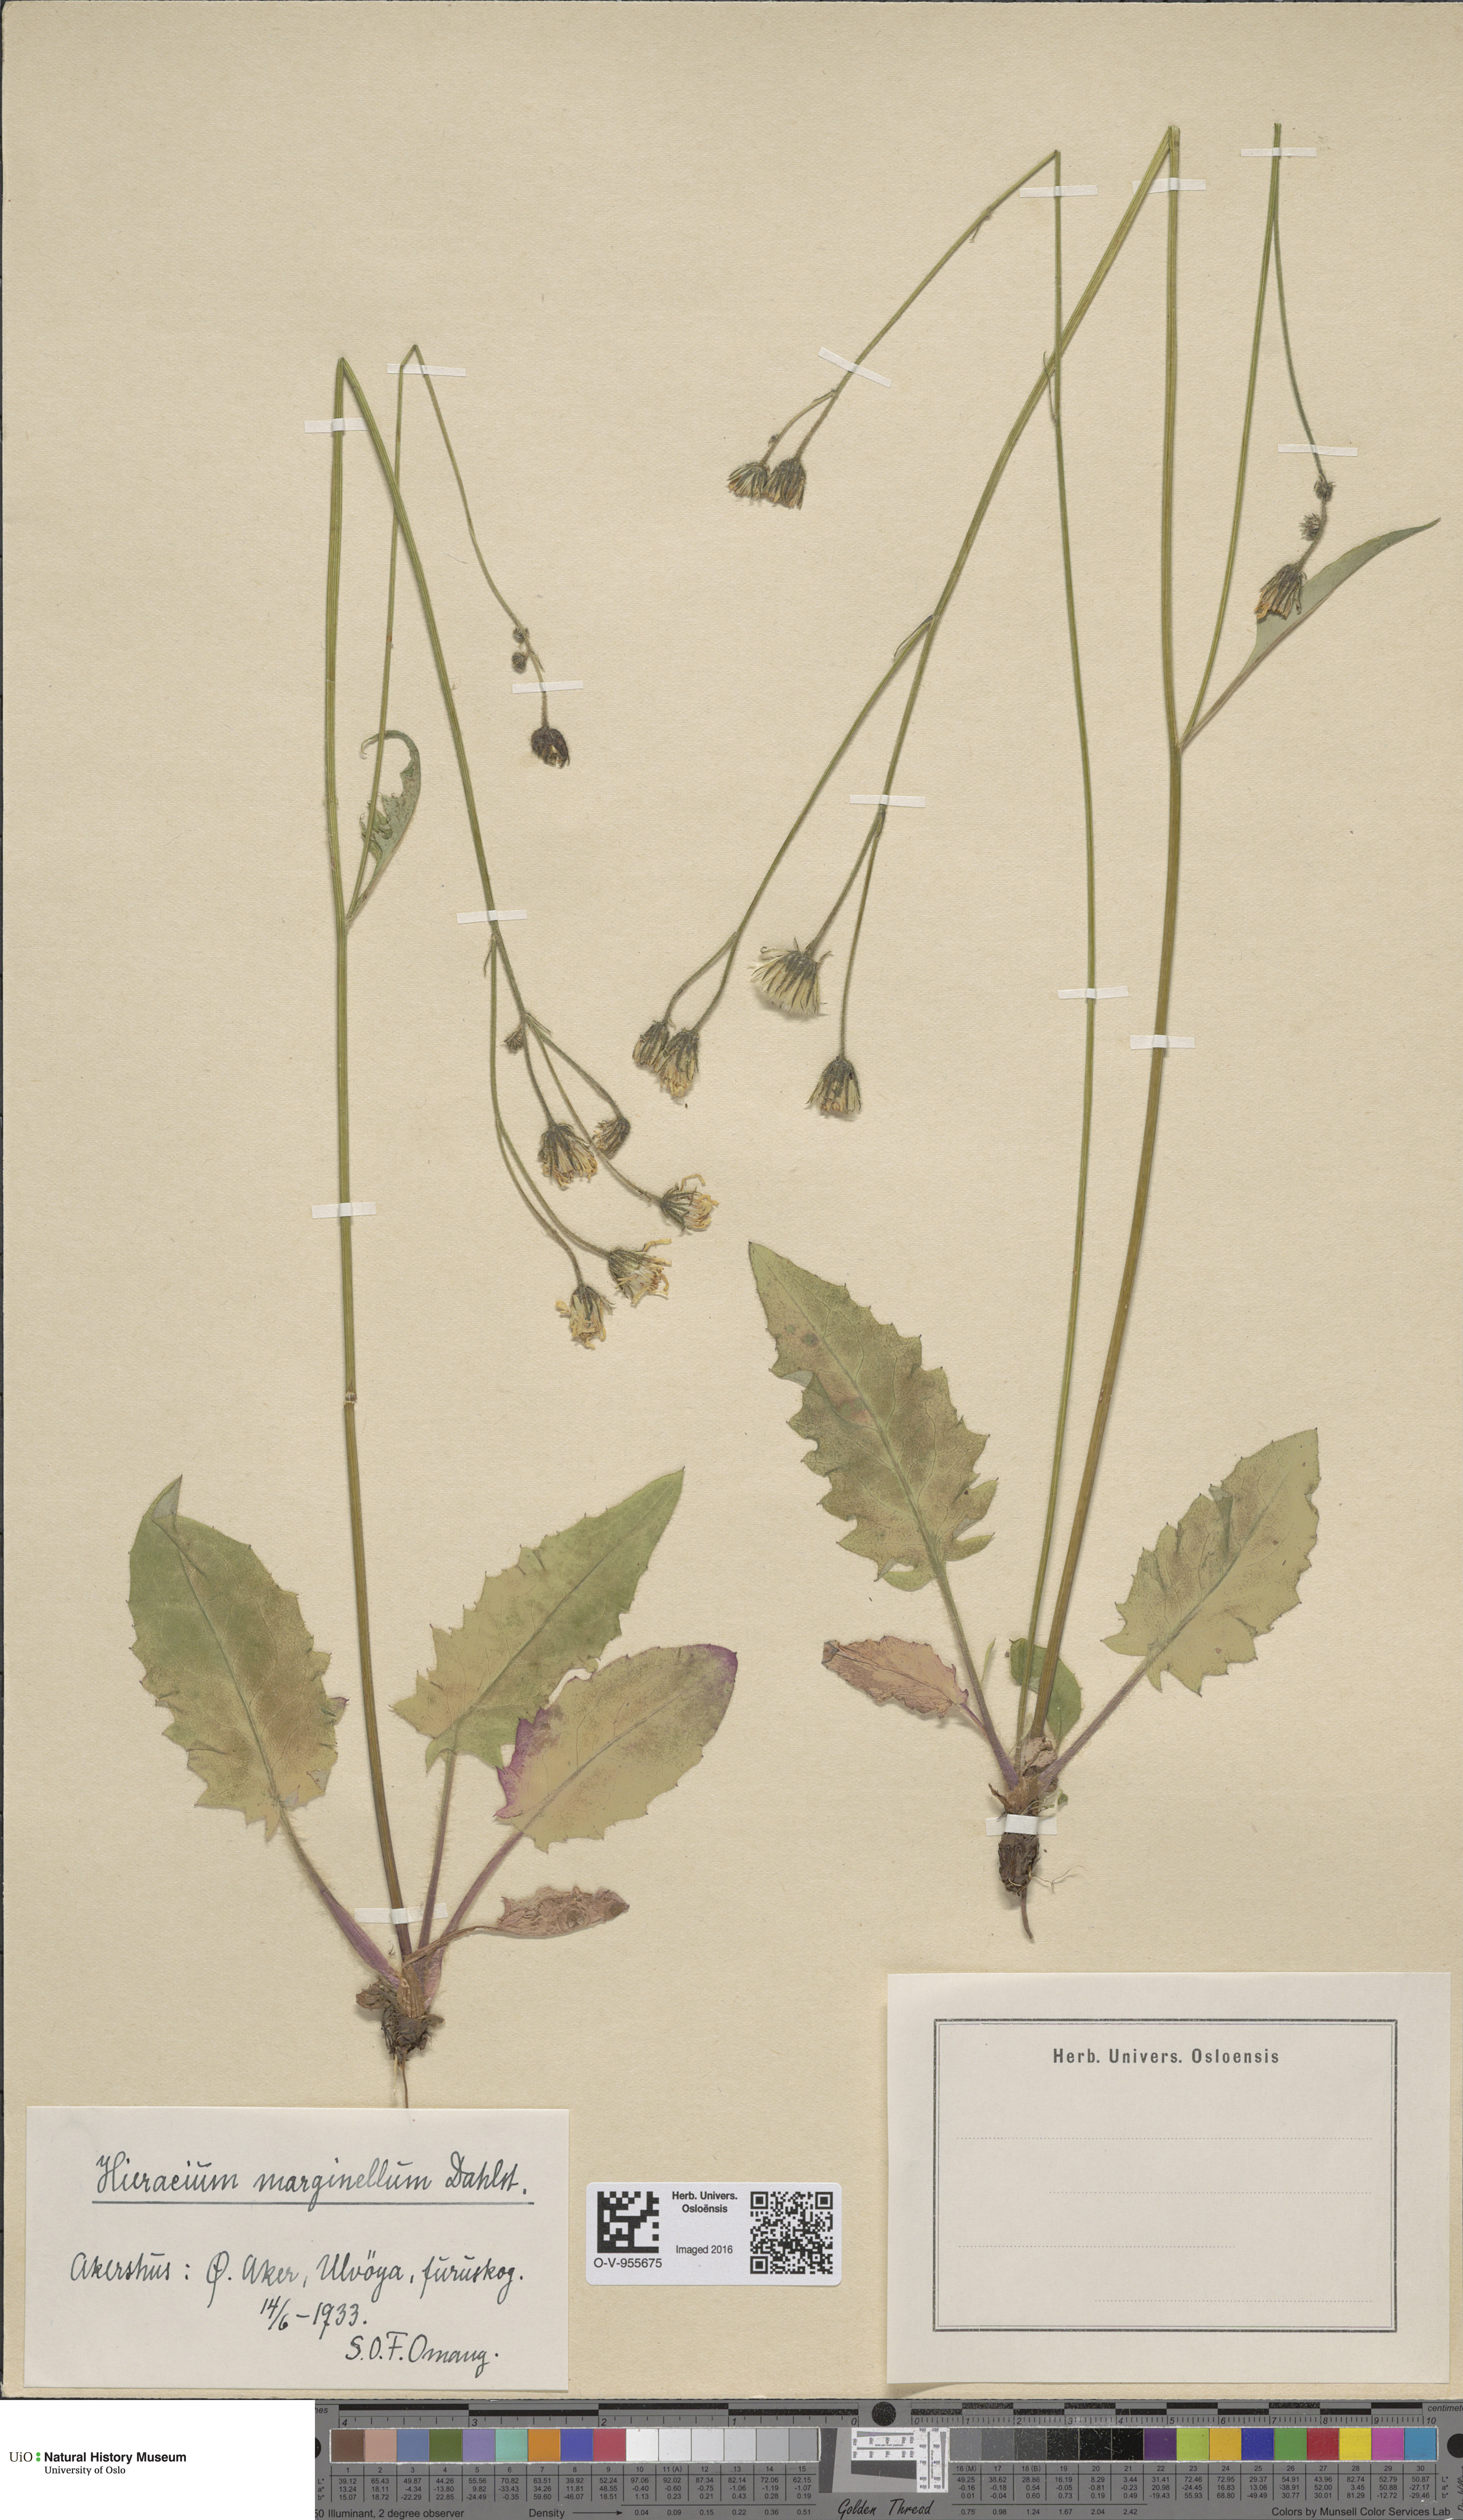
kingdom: Plantae
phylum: Tracheophyta
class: Magnoliopsida
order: Asterales
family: Asteraceae
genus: Hieracium
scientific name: Hieracium marginellum
